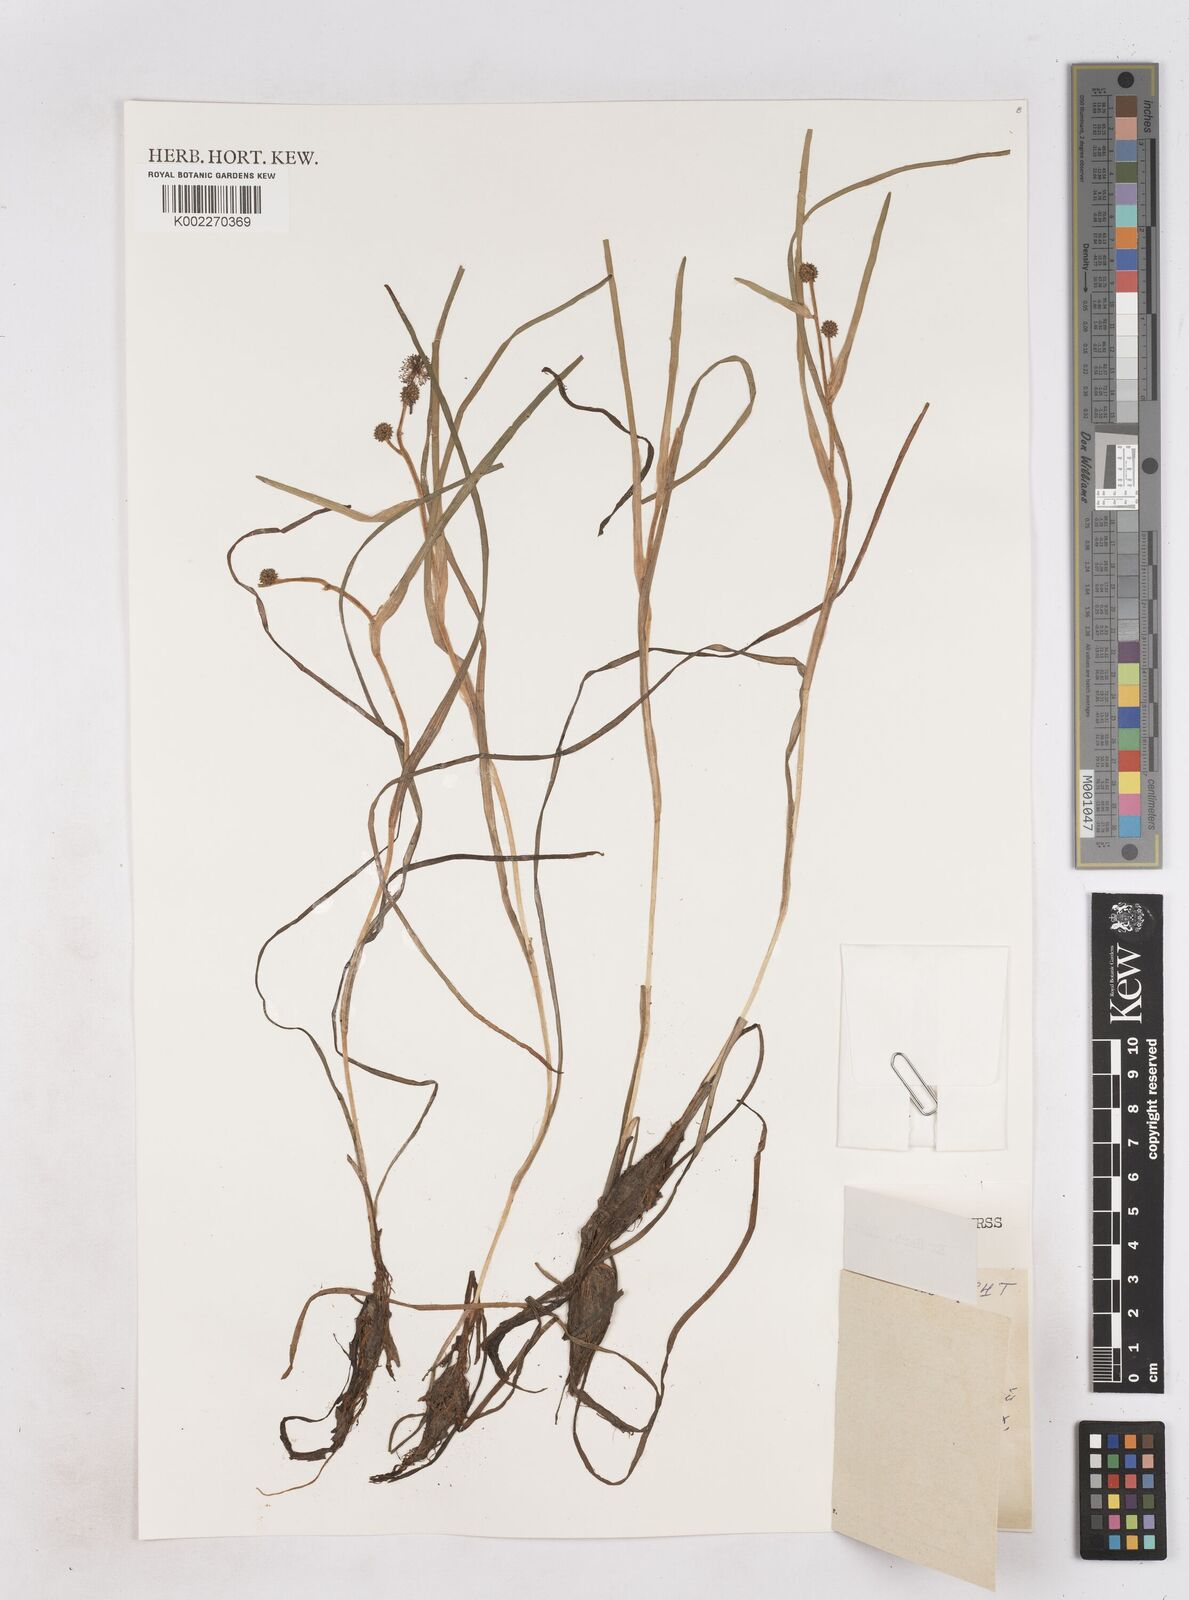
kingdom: Plantae
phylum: Tracheophyta
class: Liliopsida
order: Poales
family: Typhaceae
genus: Sparganium
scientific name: Sparganium natans
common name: Least bur-reed
